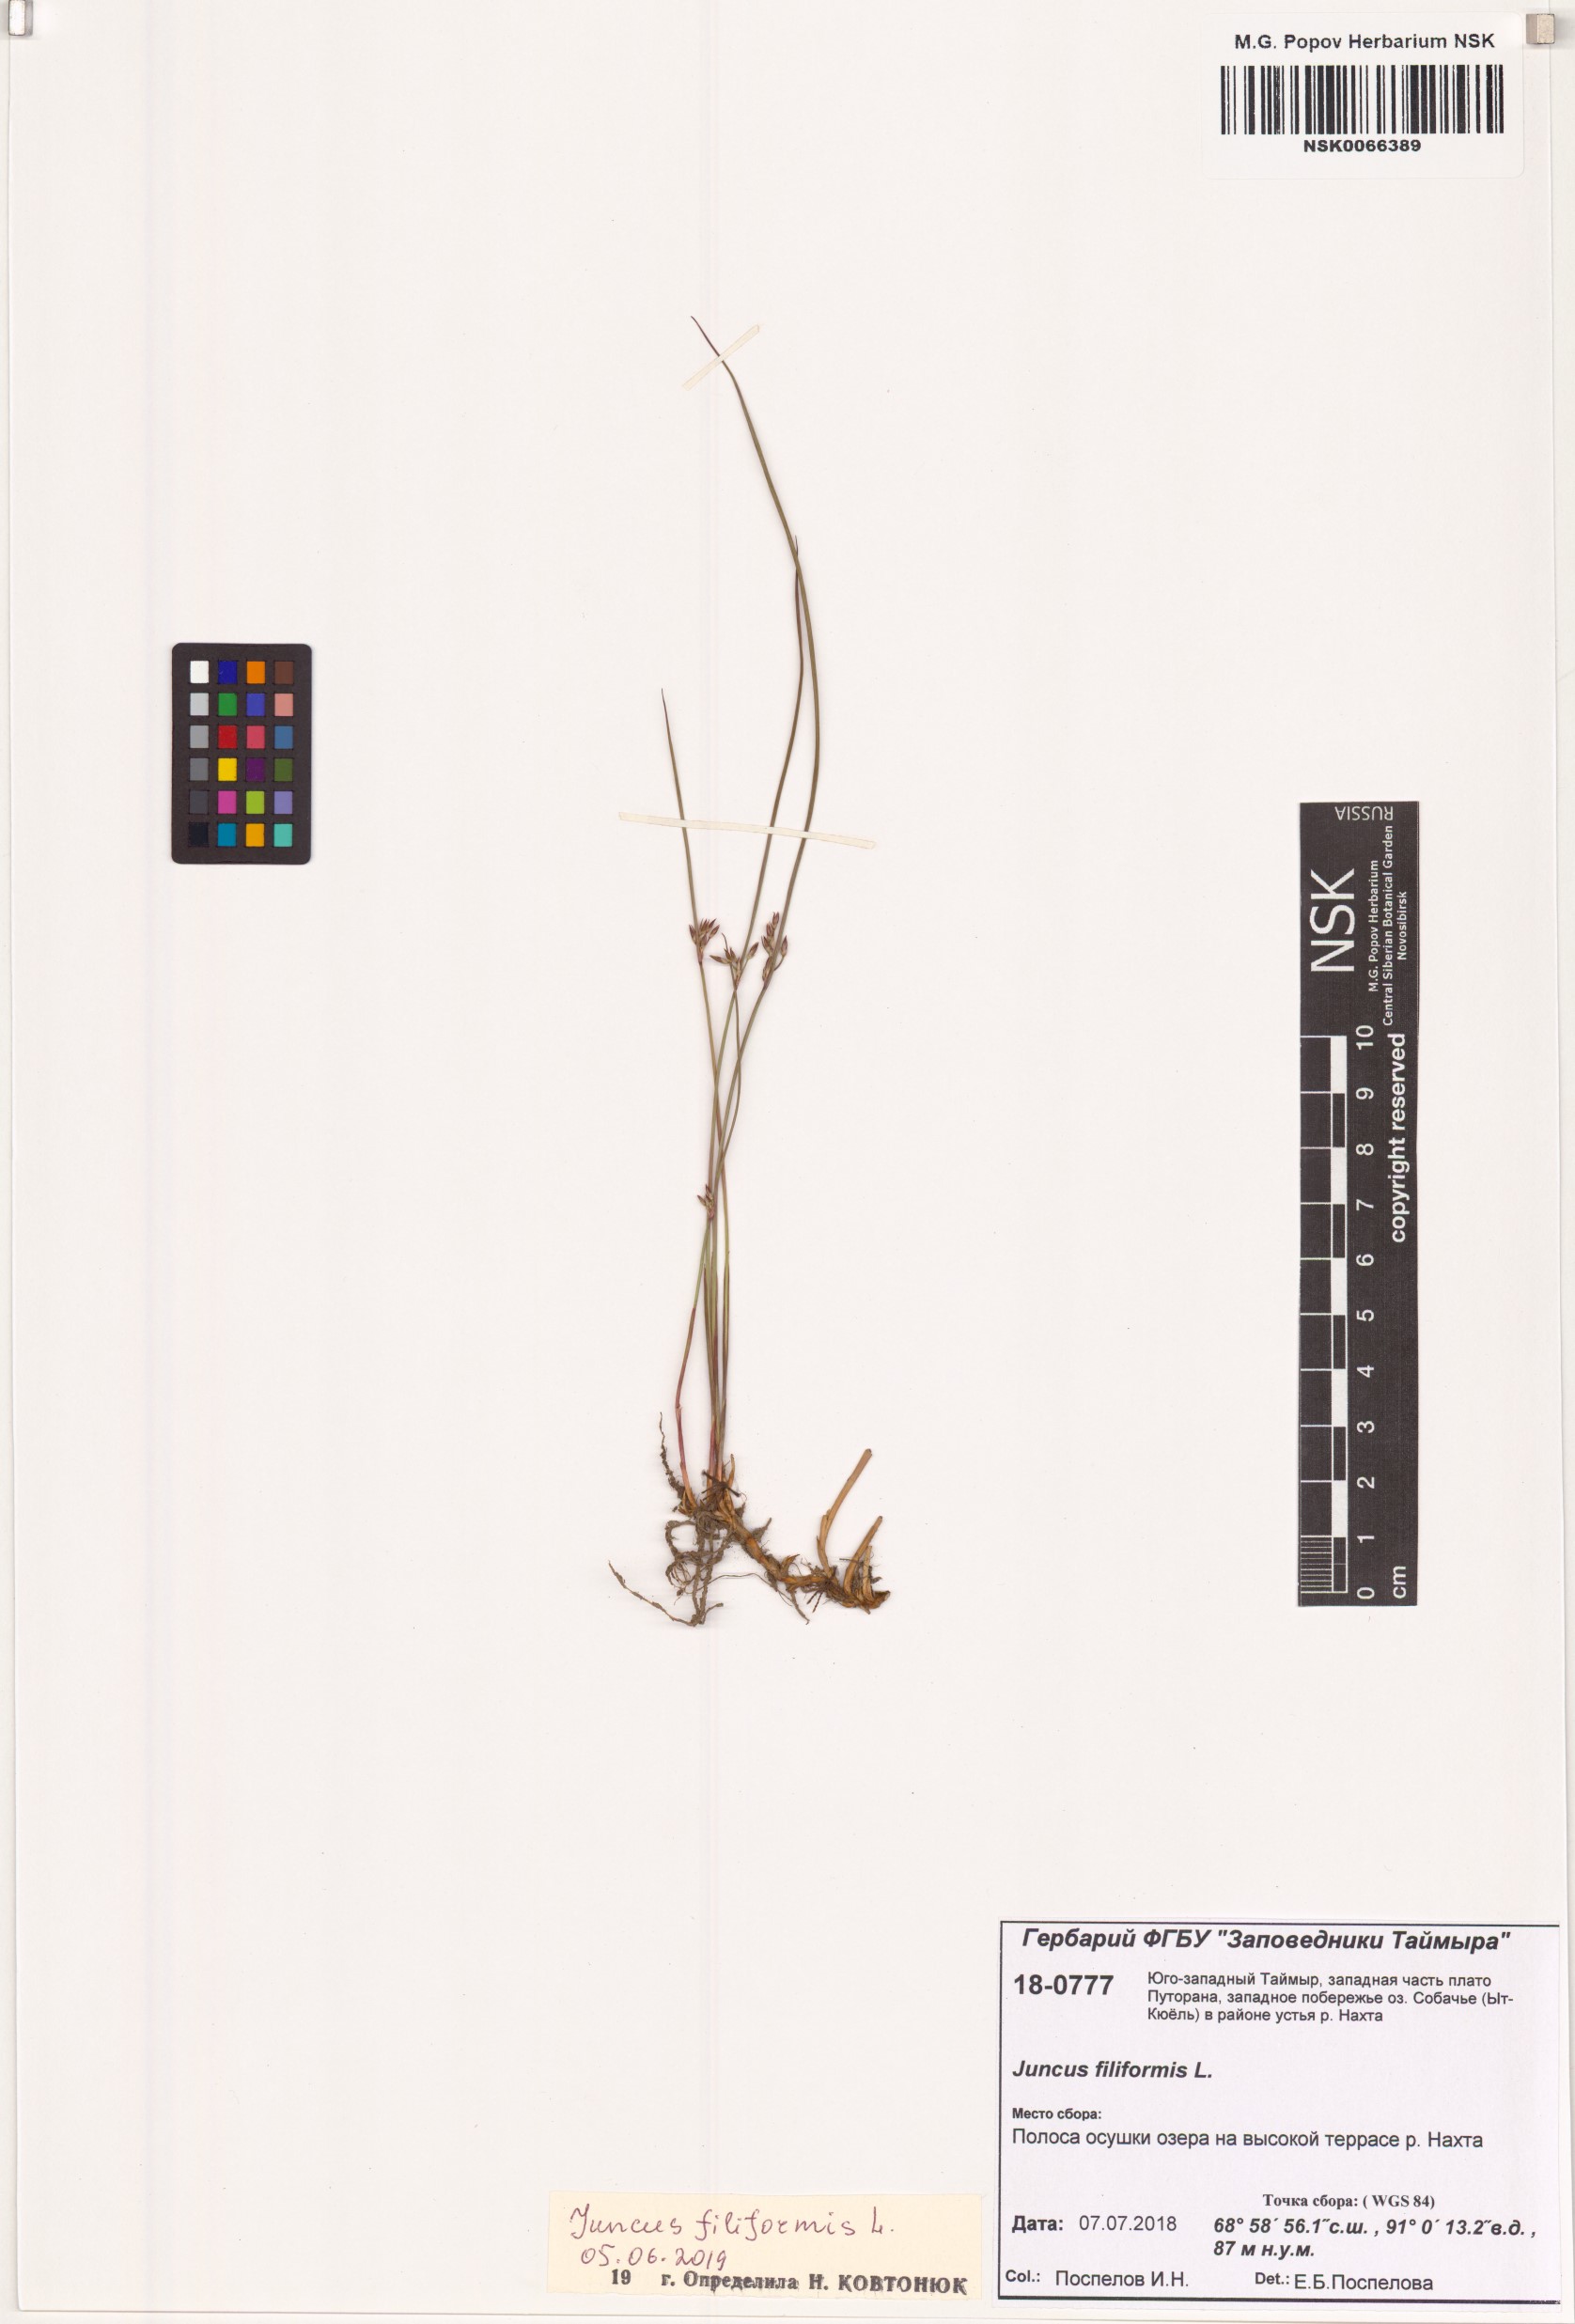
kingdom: Plantae
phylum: Tracheophyta
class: Liliopsida
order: Poales
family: Juncaceae
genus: Juncus
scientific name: Juncus filiformis
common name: Thread rush
